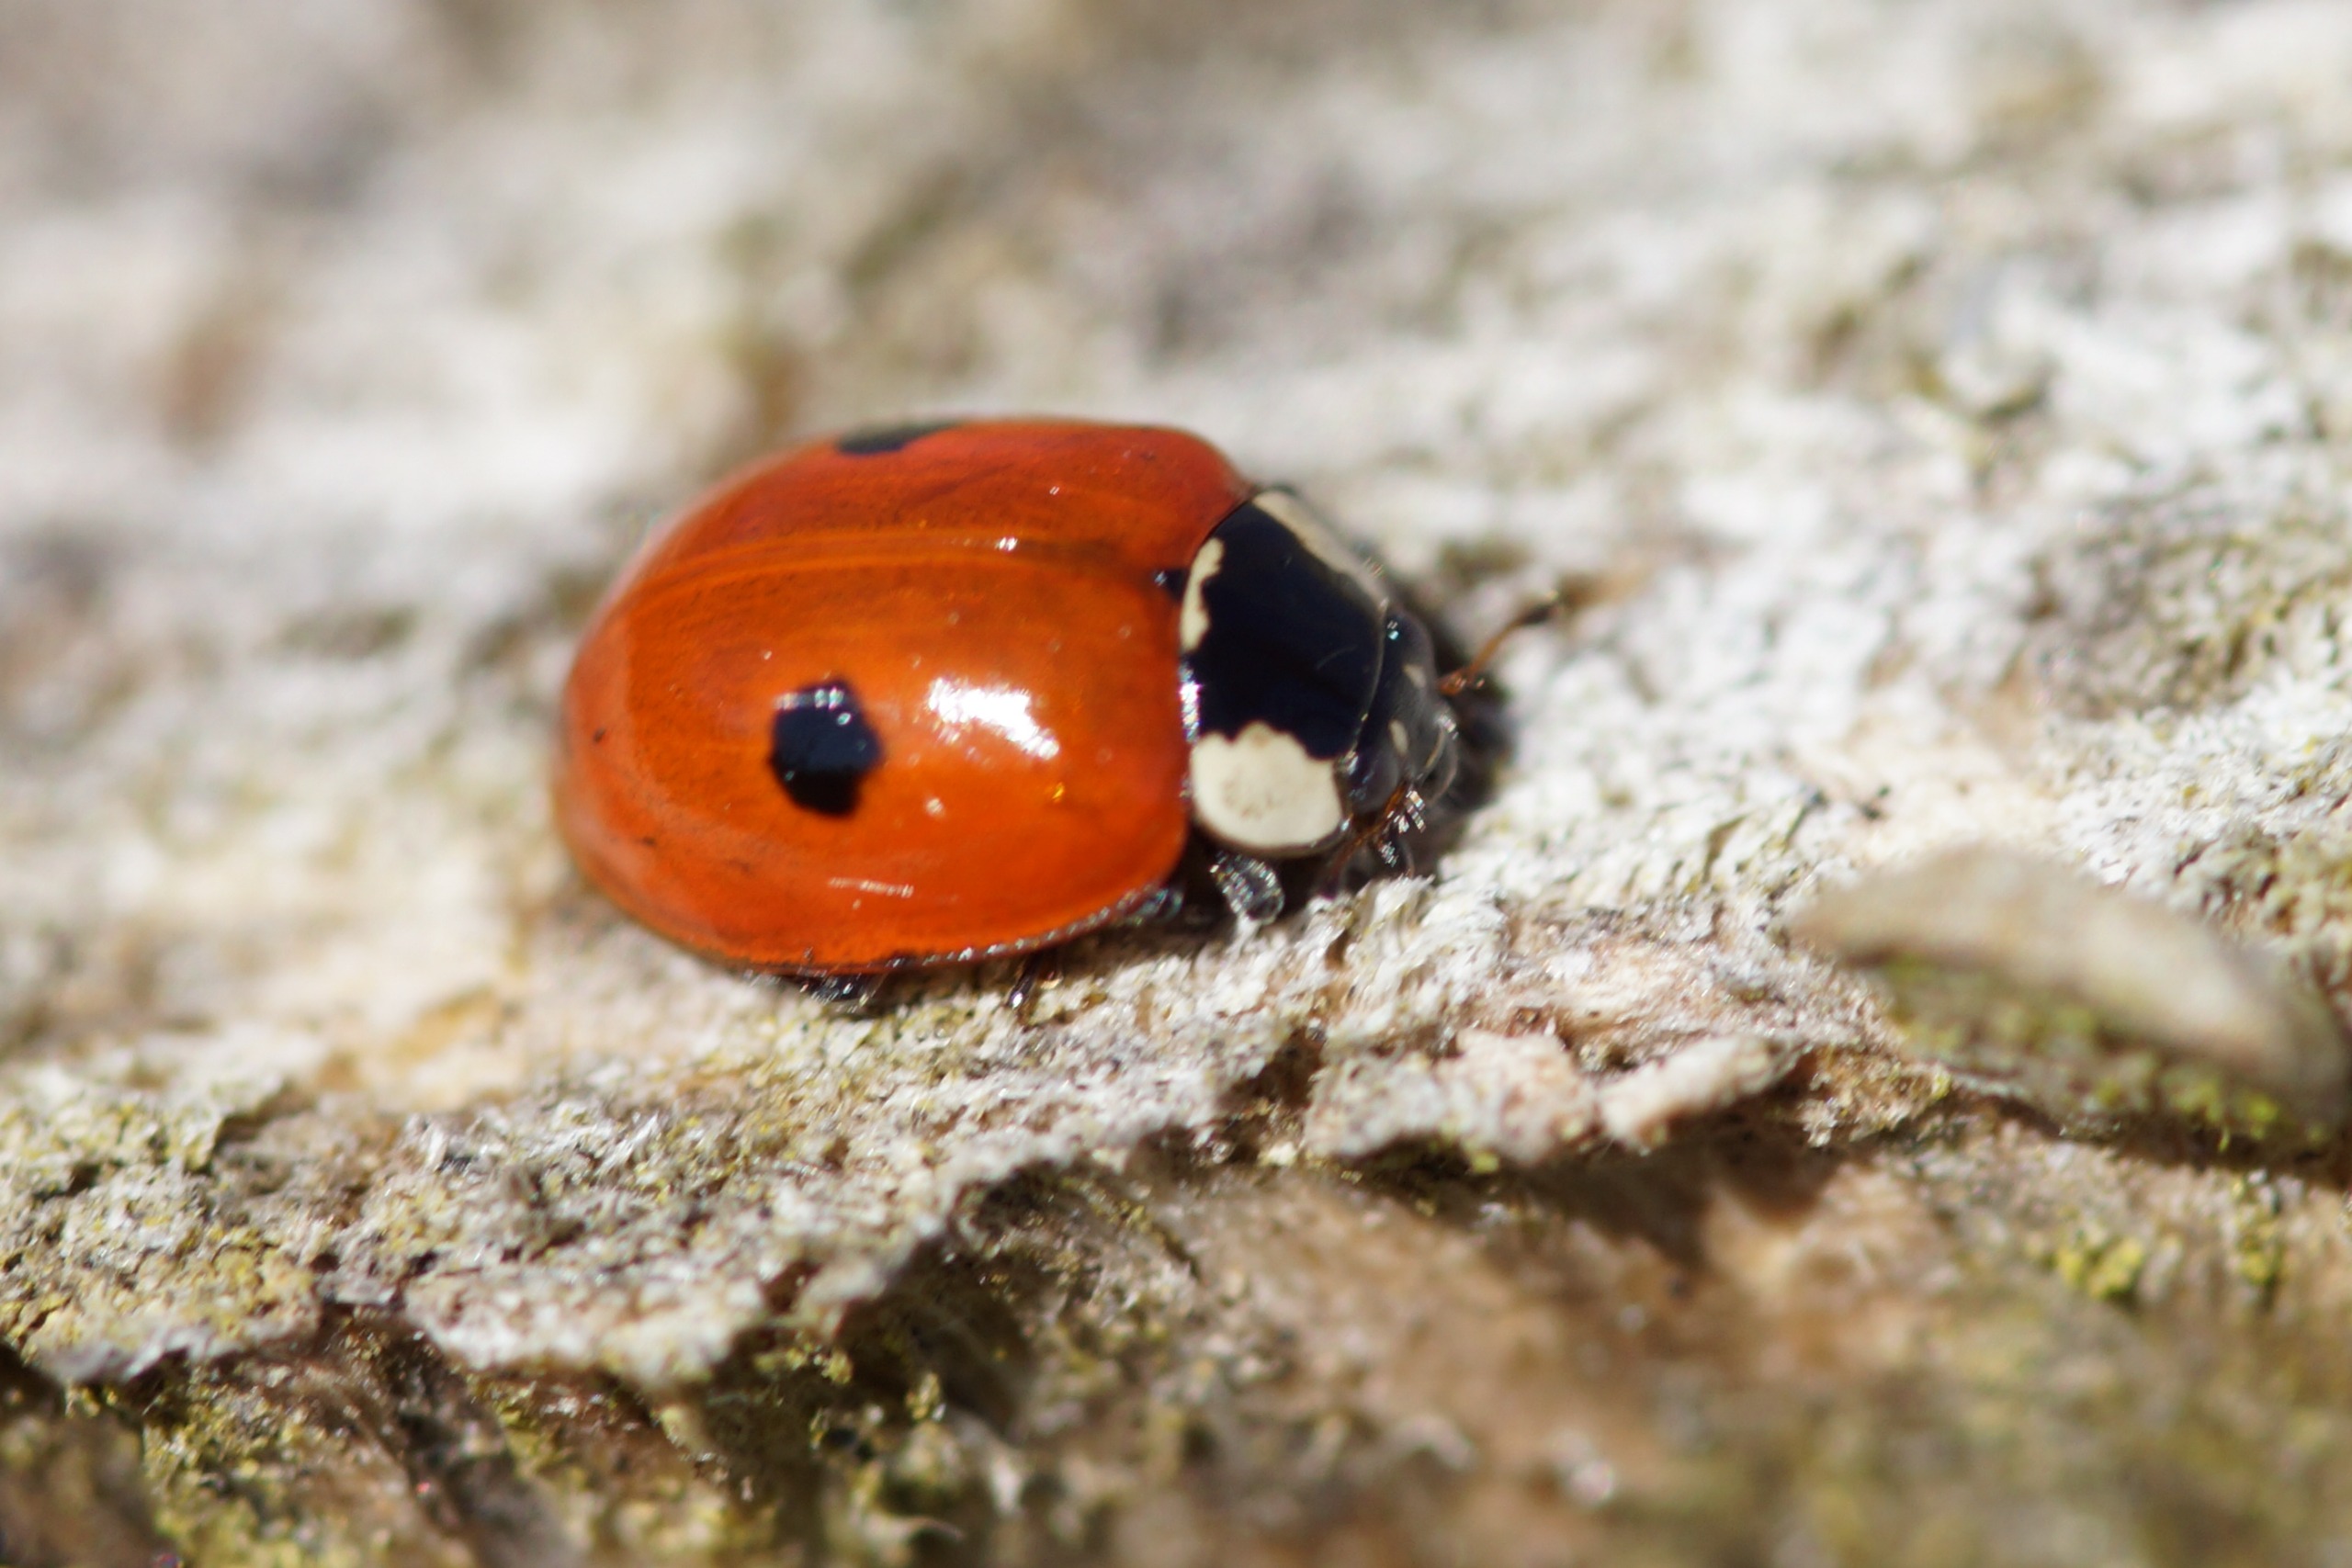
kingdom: Animalia
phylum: Arthropoda
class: Insecta
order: Coleoptera
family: Coccinellidae
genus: Adalia
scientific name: Adalia bipunctata
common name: Toplettet mariehøne
